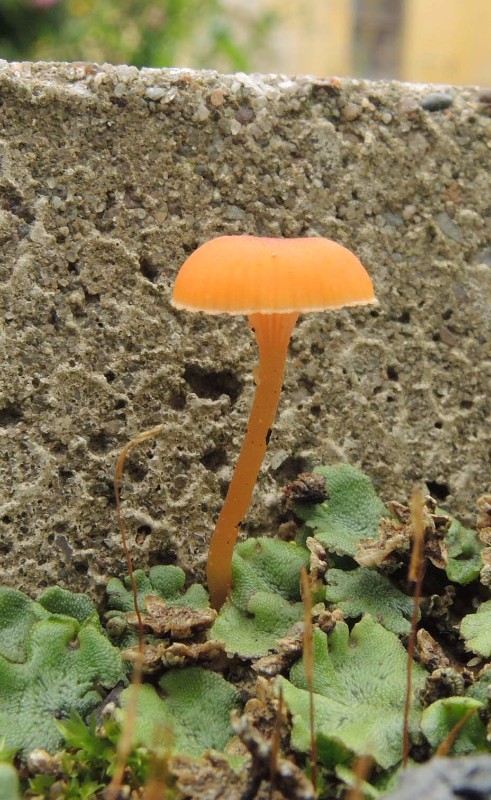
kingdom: Fungi
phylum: Basidiomycota
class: Agaricomycetes
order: Hymenochaetales
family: Rickenellaceae
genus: Loreleia
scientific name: Loreleia marchantiae
